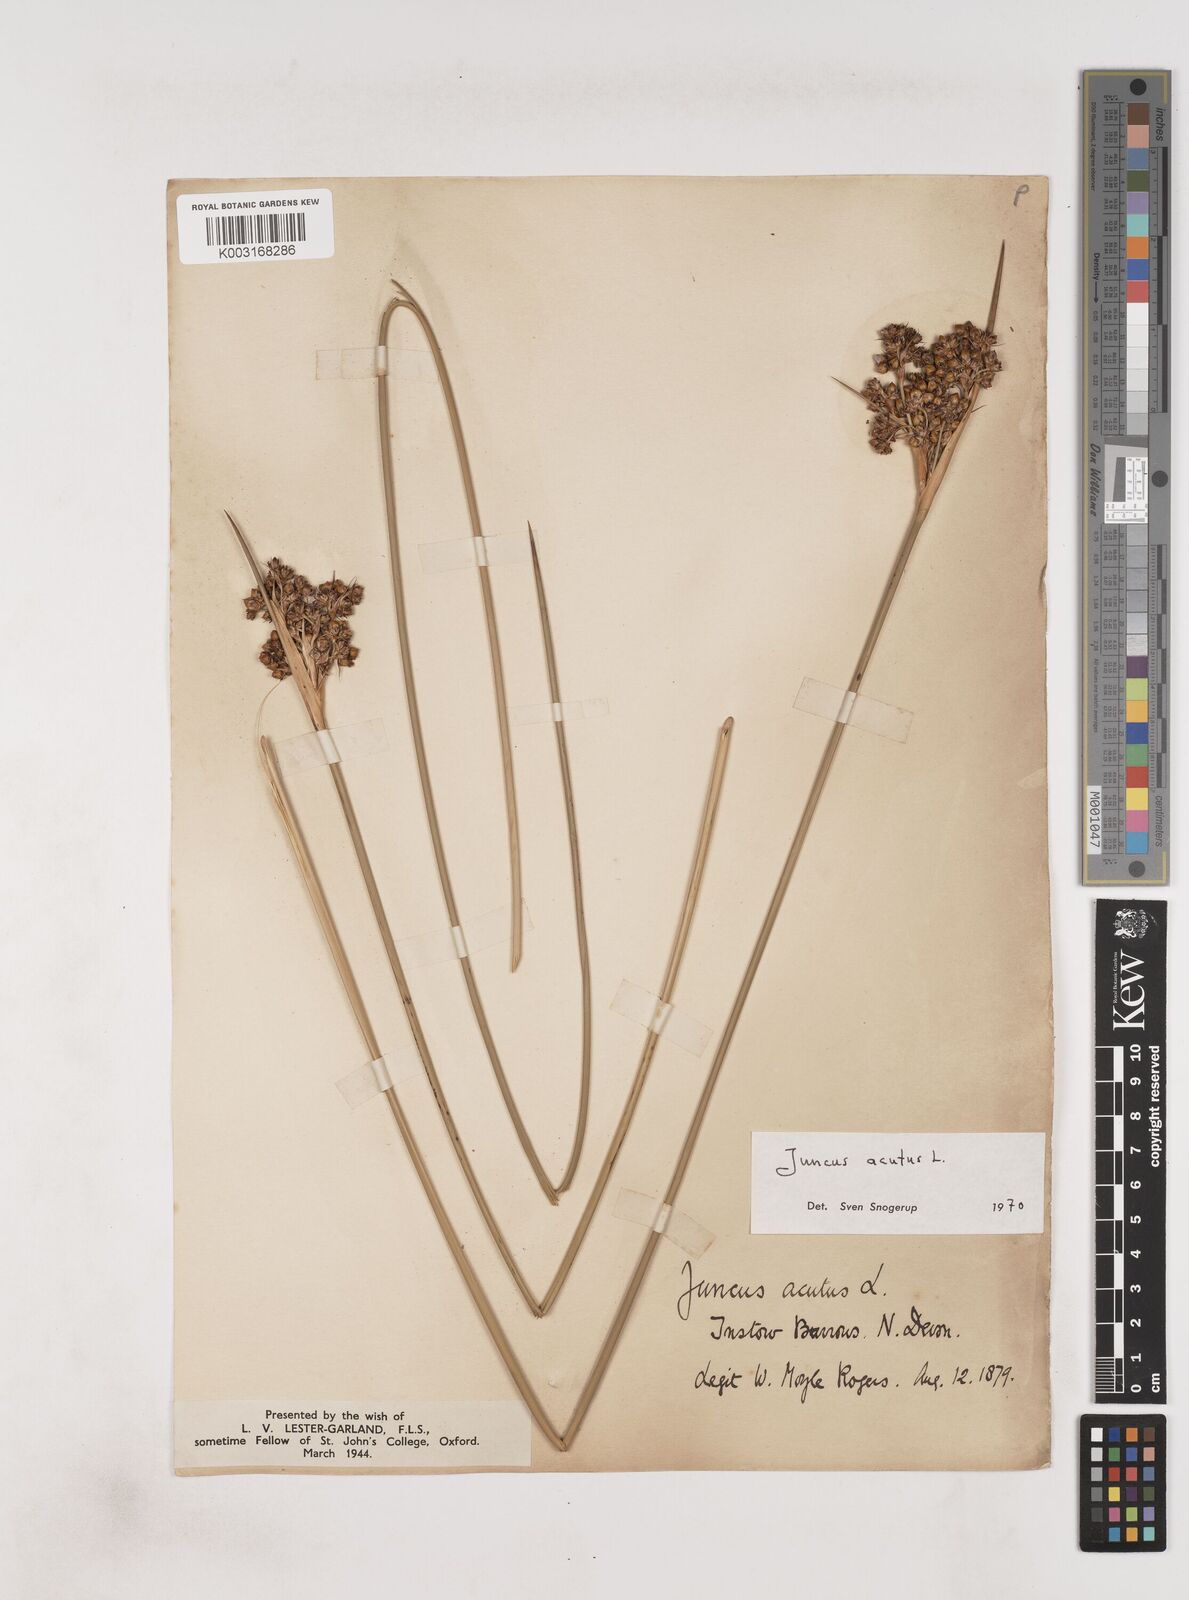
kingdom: Plantae
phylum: Tracheophyta
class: Liliopsida
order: Poales
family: Juncaceae
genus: Juncus
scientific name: Juncus acutus
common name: Sharp rush
